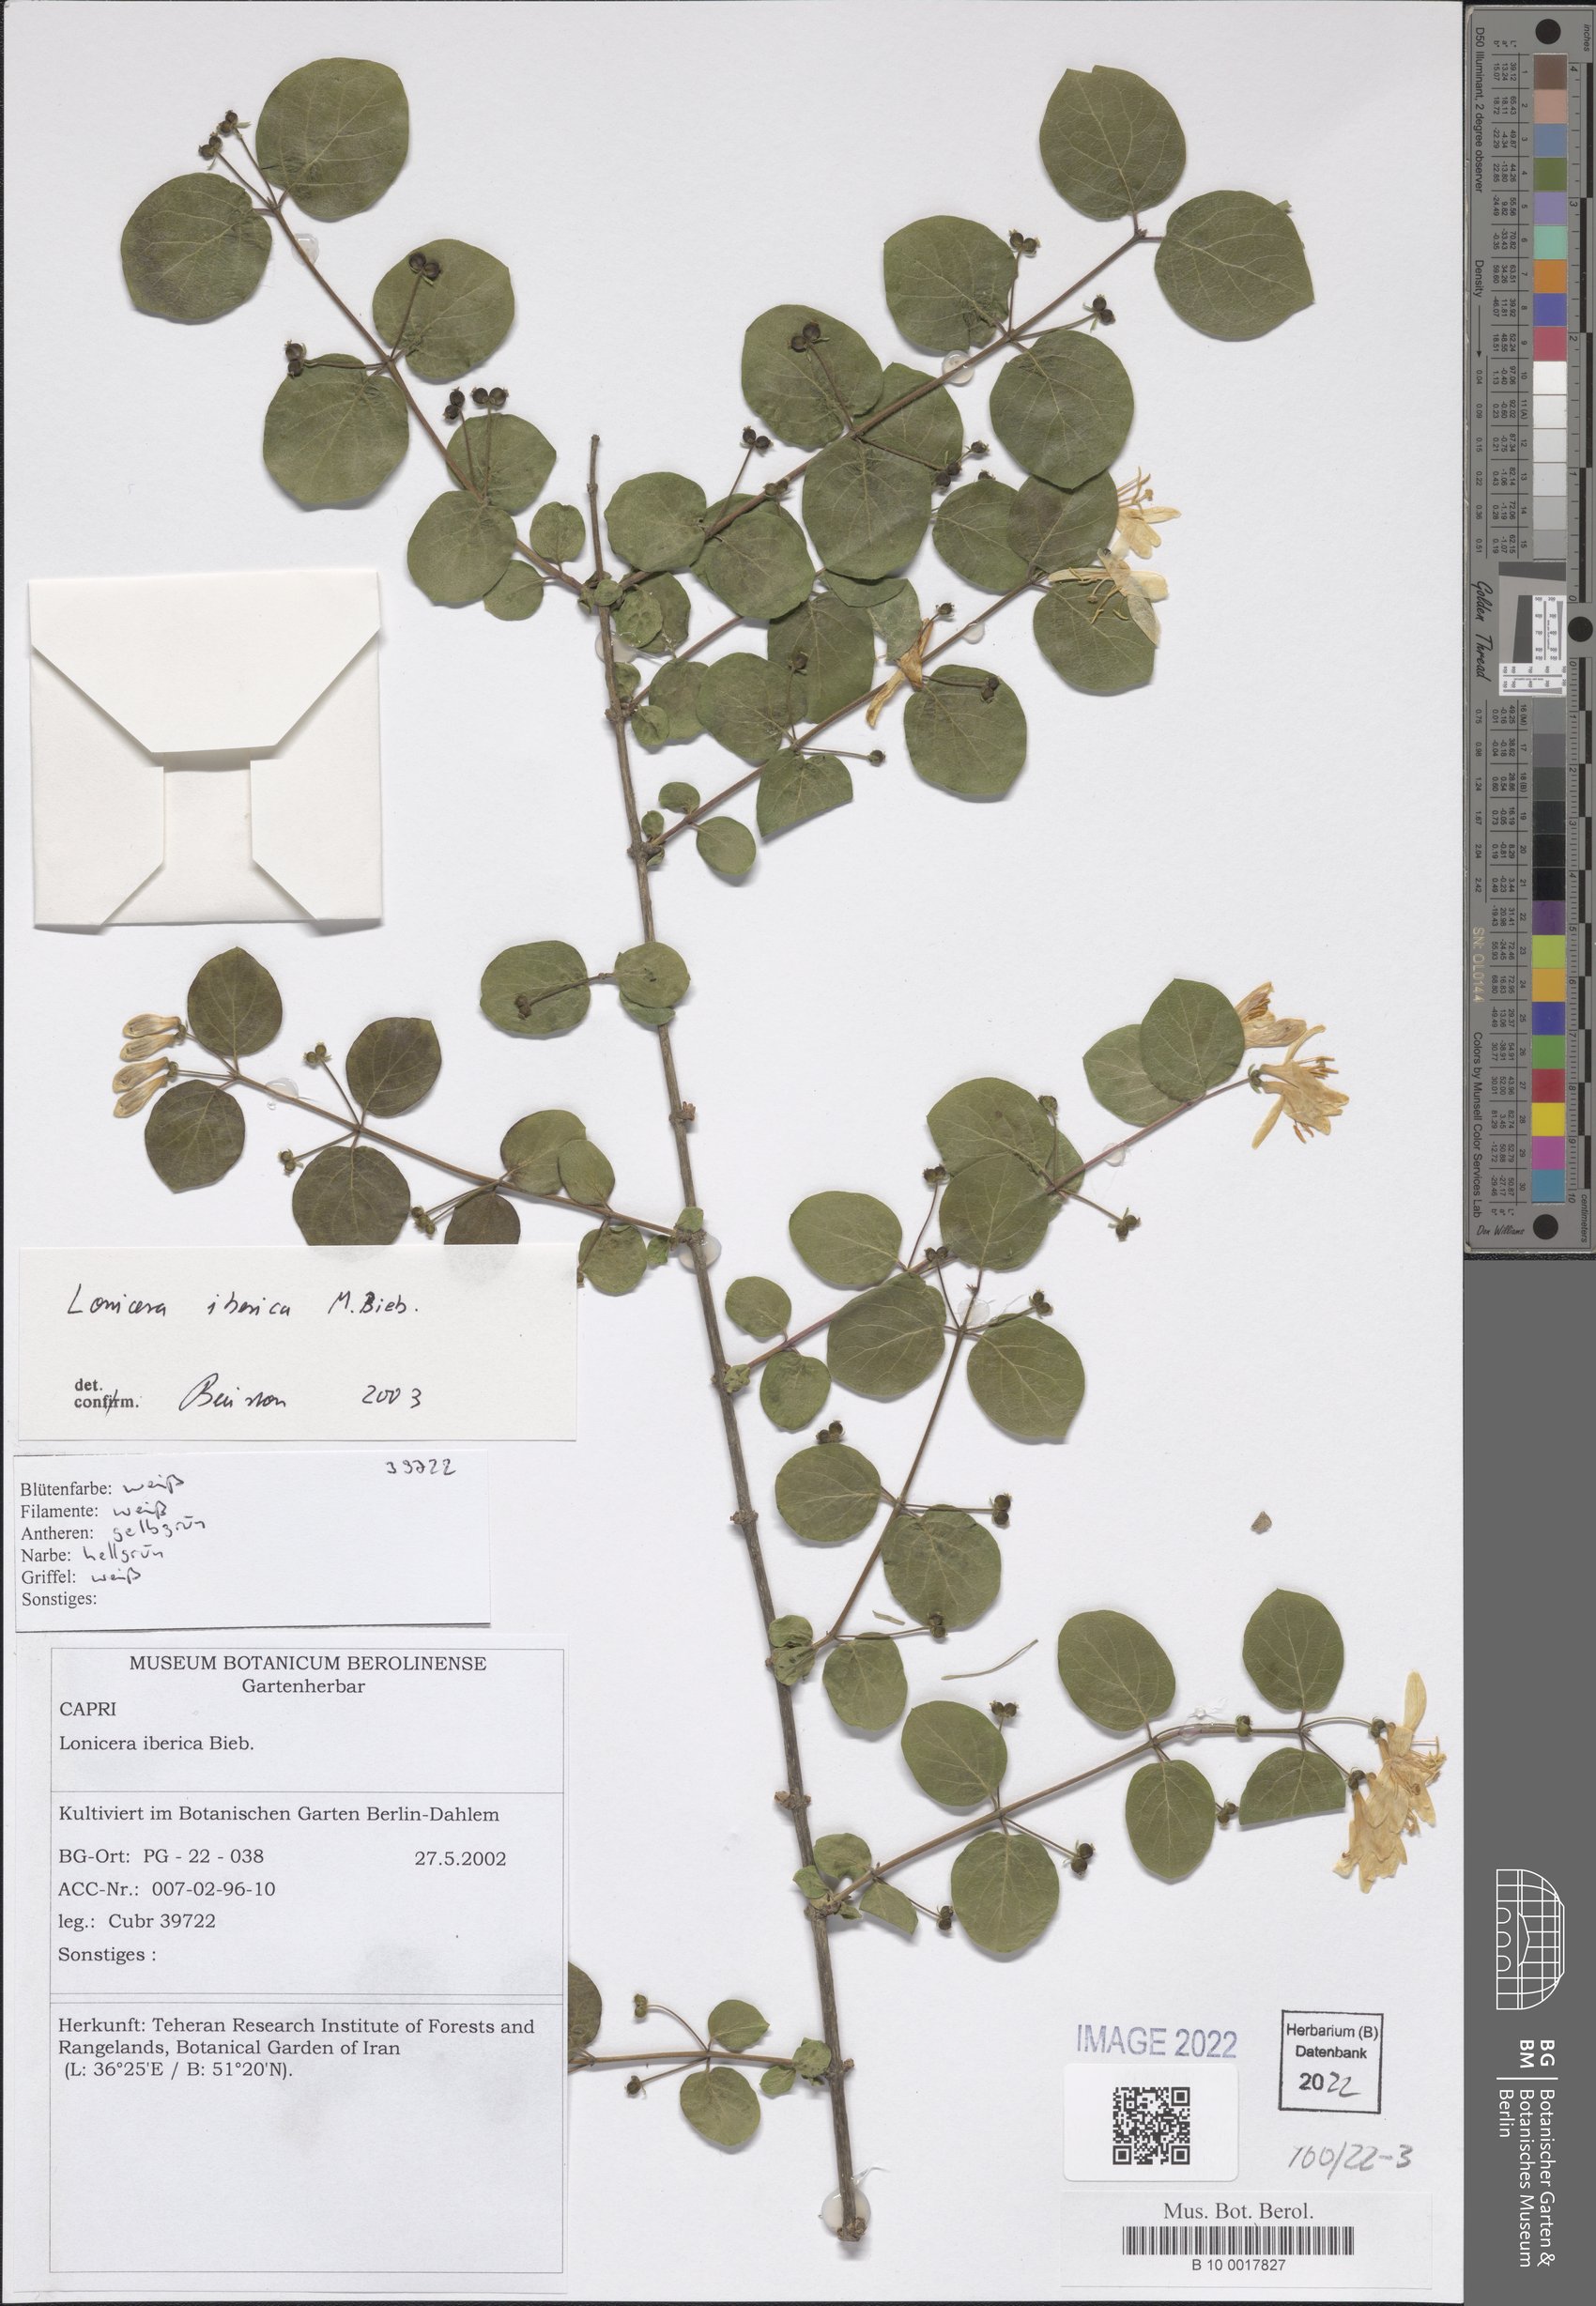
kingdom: Plantae
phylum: Tracheophyta
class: Magnoliopsida
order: Dipsacales
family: Caprifoliaceae
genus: Lonicera
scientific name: Lonicera iberica
